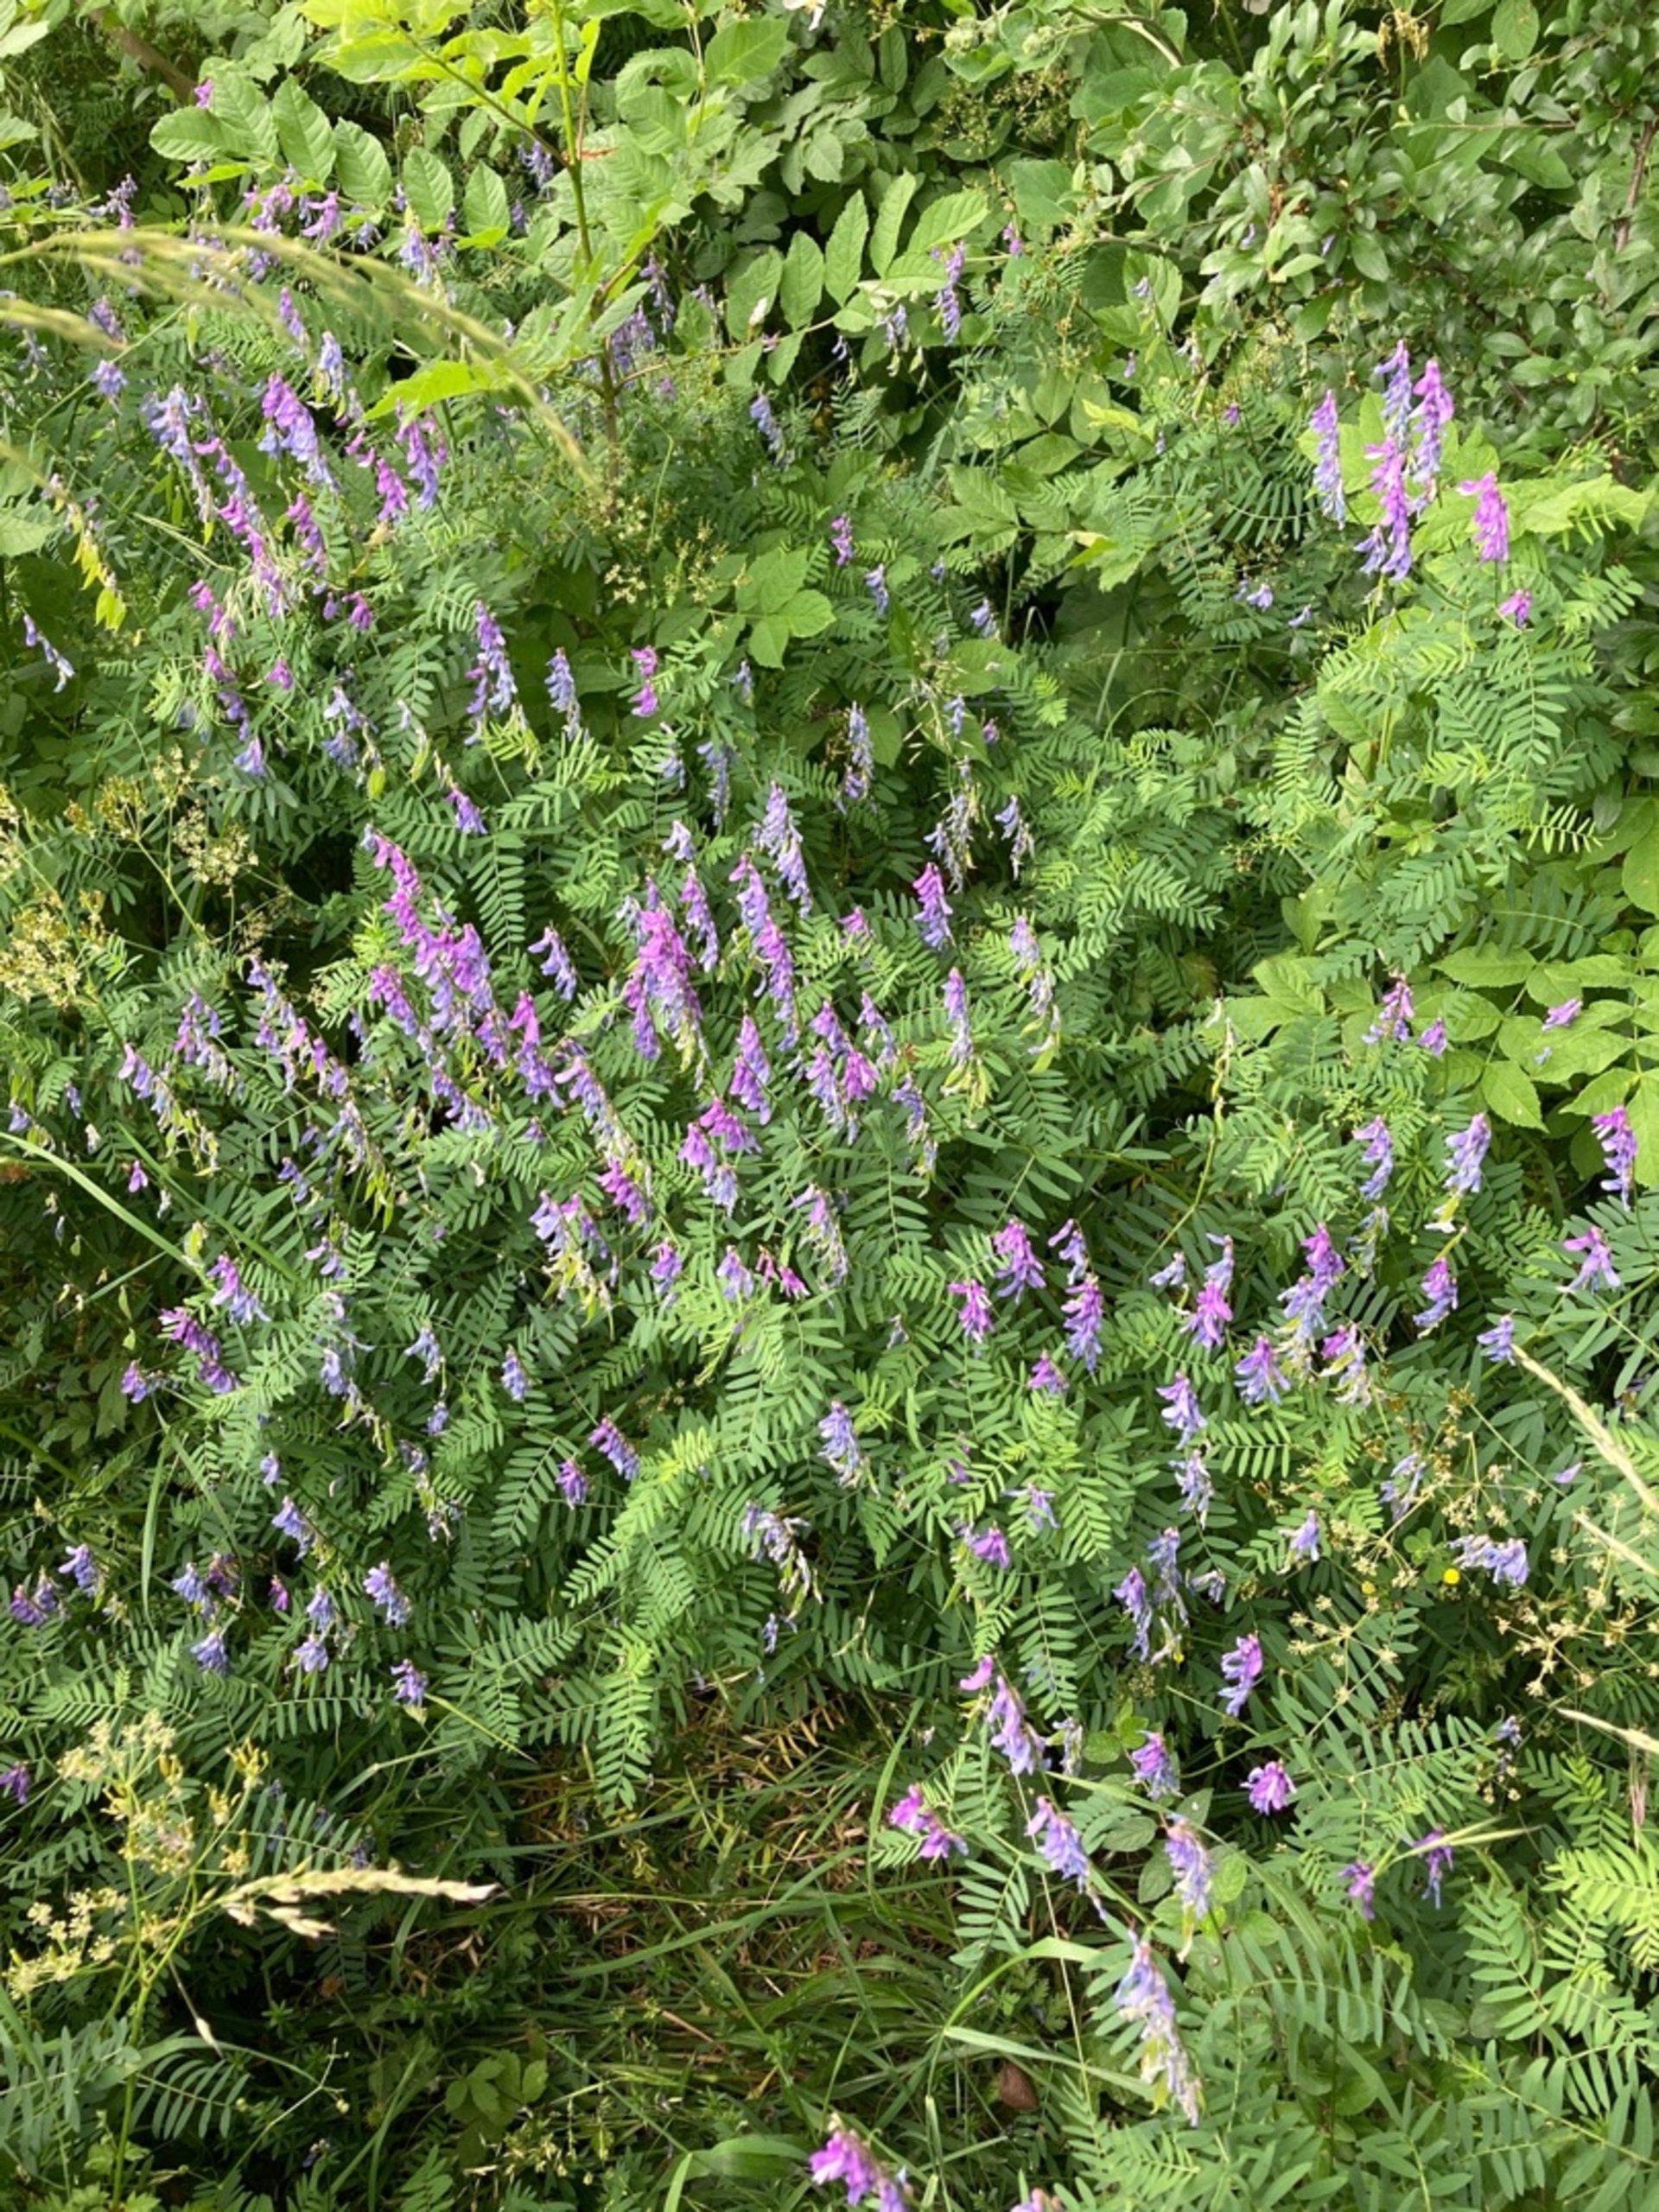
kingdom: Plantae
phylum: Tracheophyta
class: Magnoliopsida
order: Fabales
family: Fabaceae
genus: Vicia
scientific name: Vicia tenuifolia
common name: Langklaset vikke
